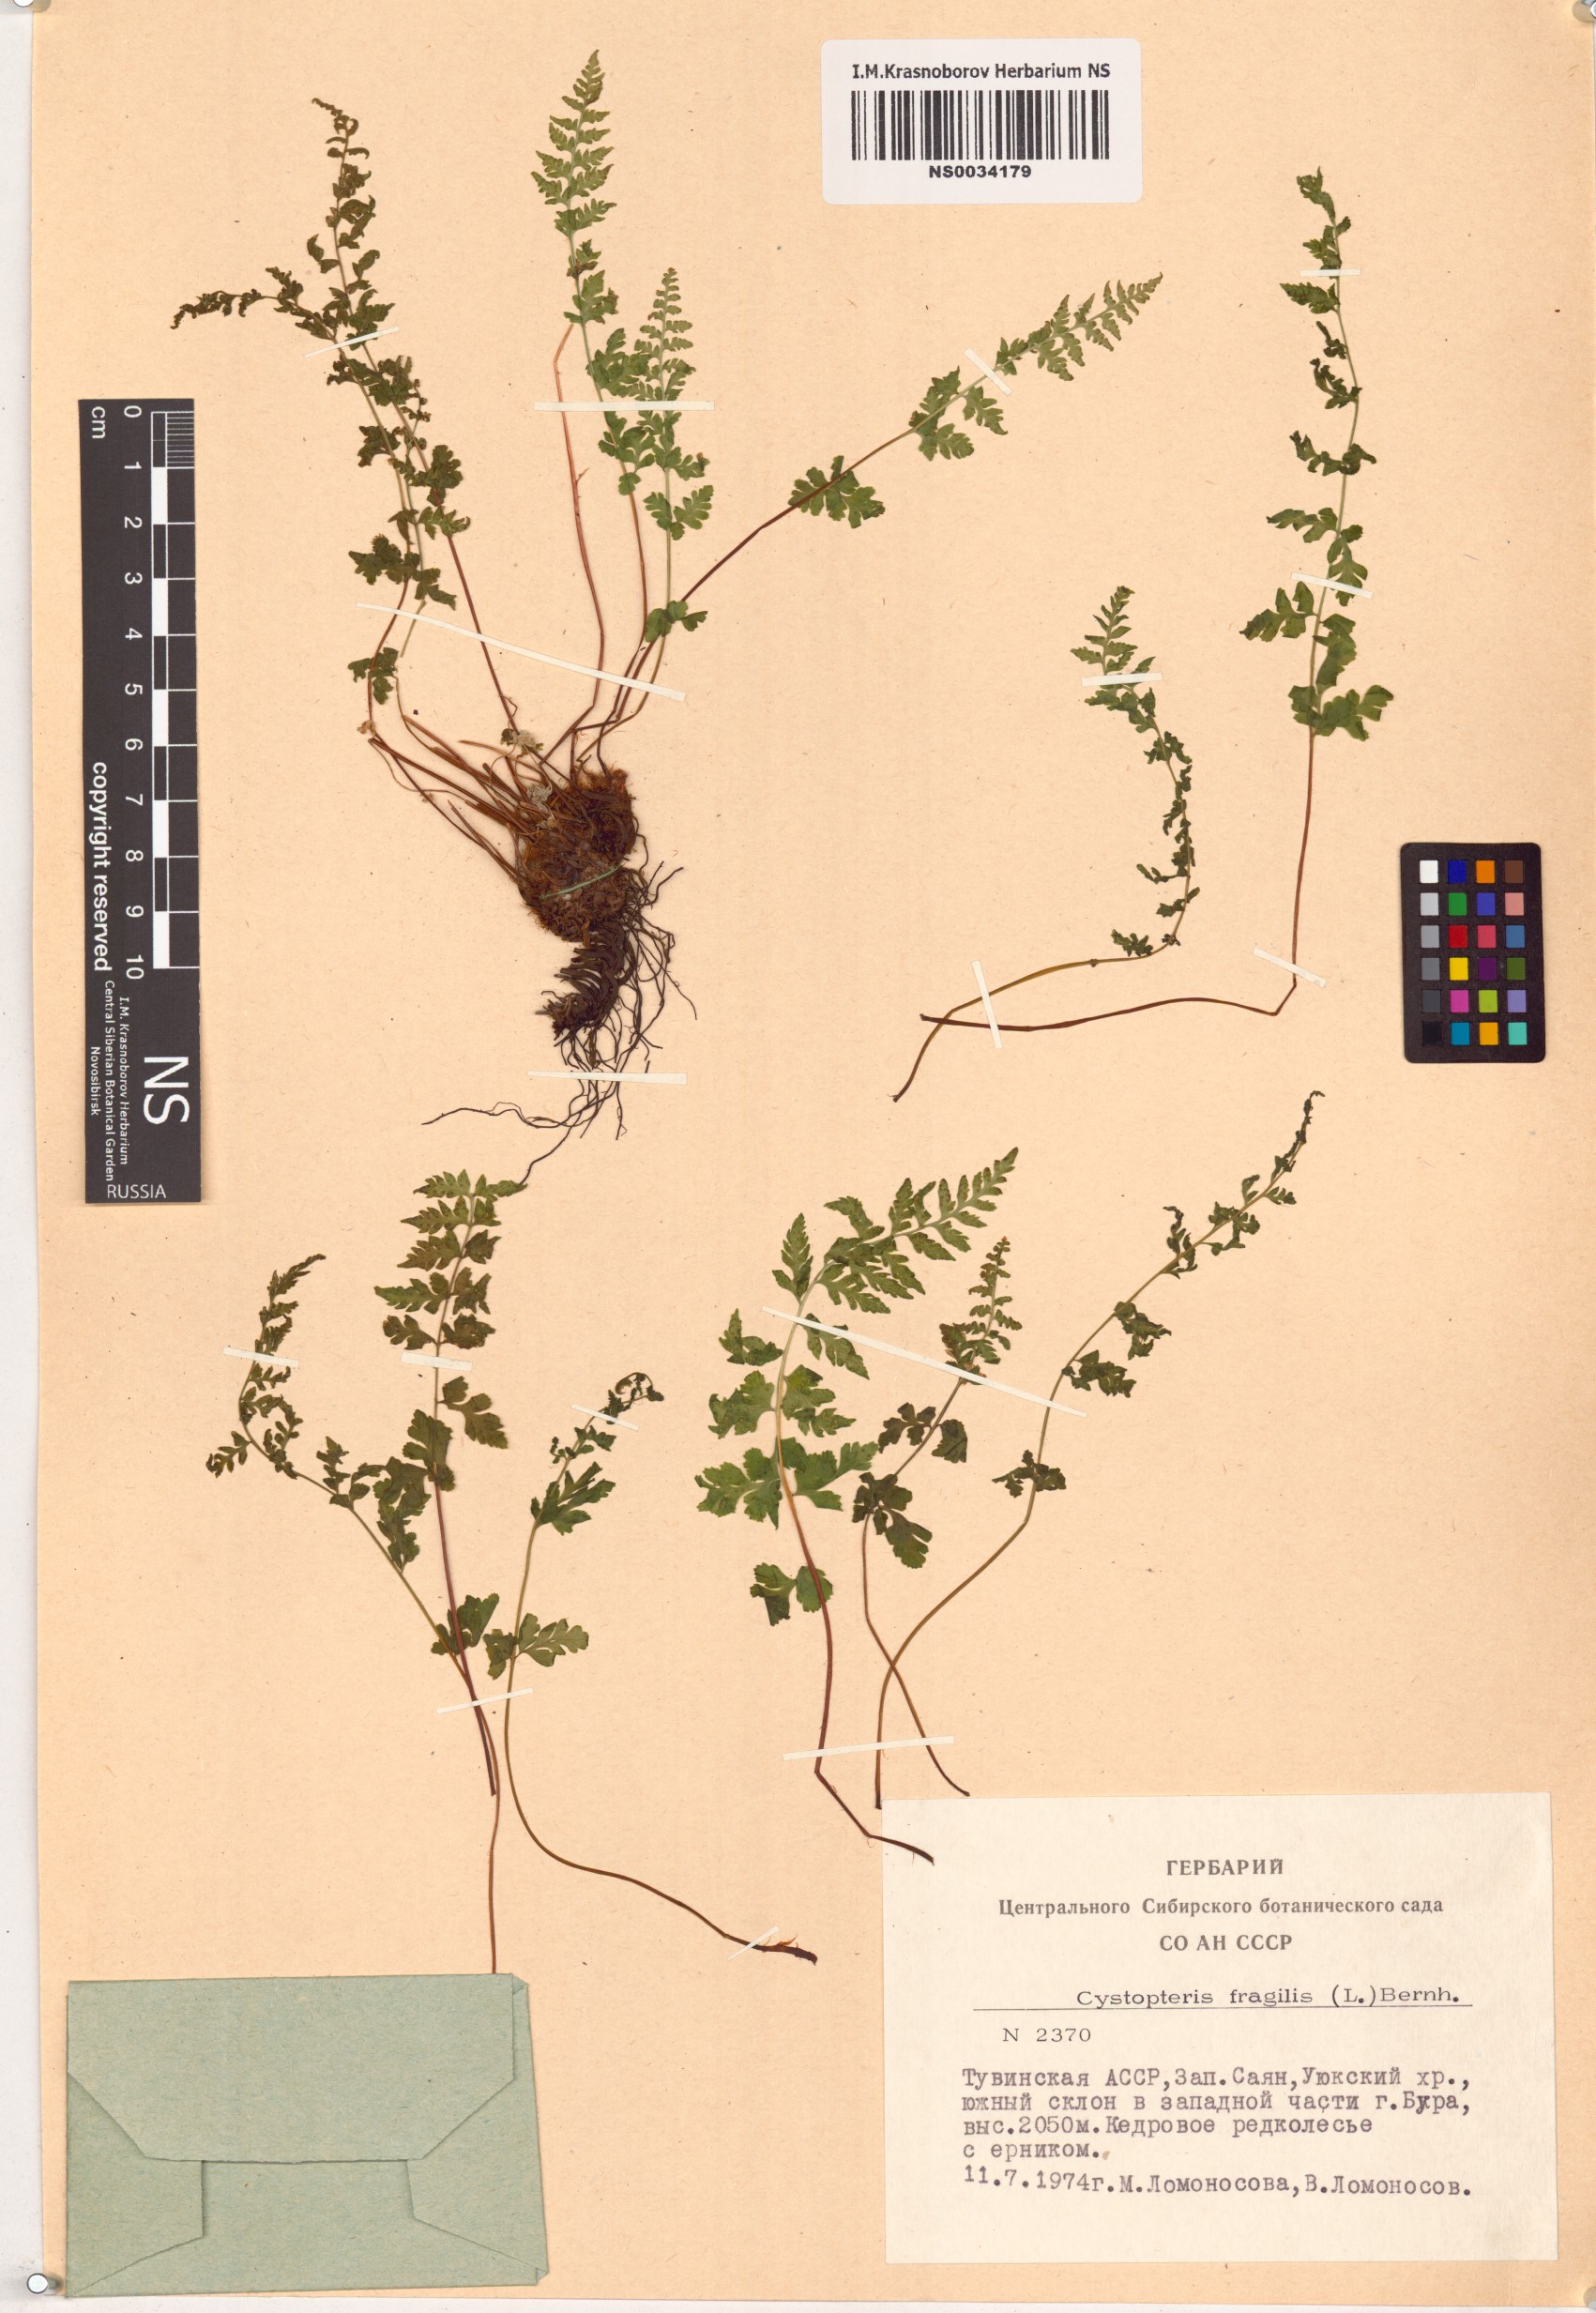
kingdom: Plantae
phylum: Tracheophyta
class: Polypodiopsida
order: Polypodiales
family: Cystopteridaceae
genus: Cystopteris
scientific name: Cystopteris fragilis
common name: Brittle bladder fern
